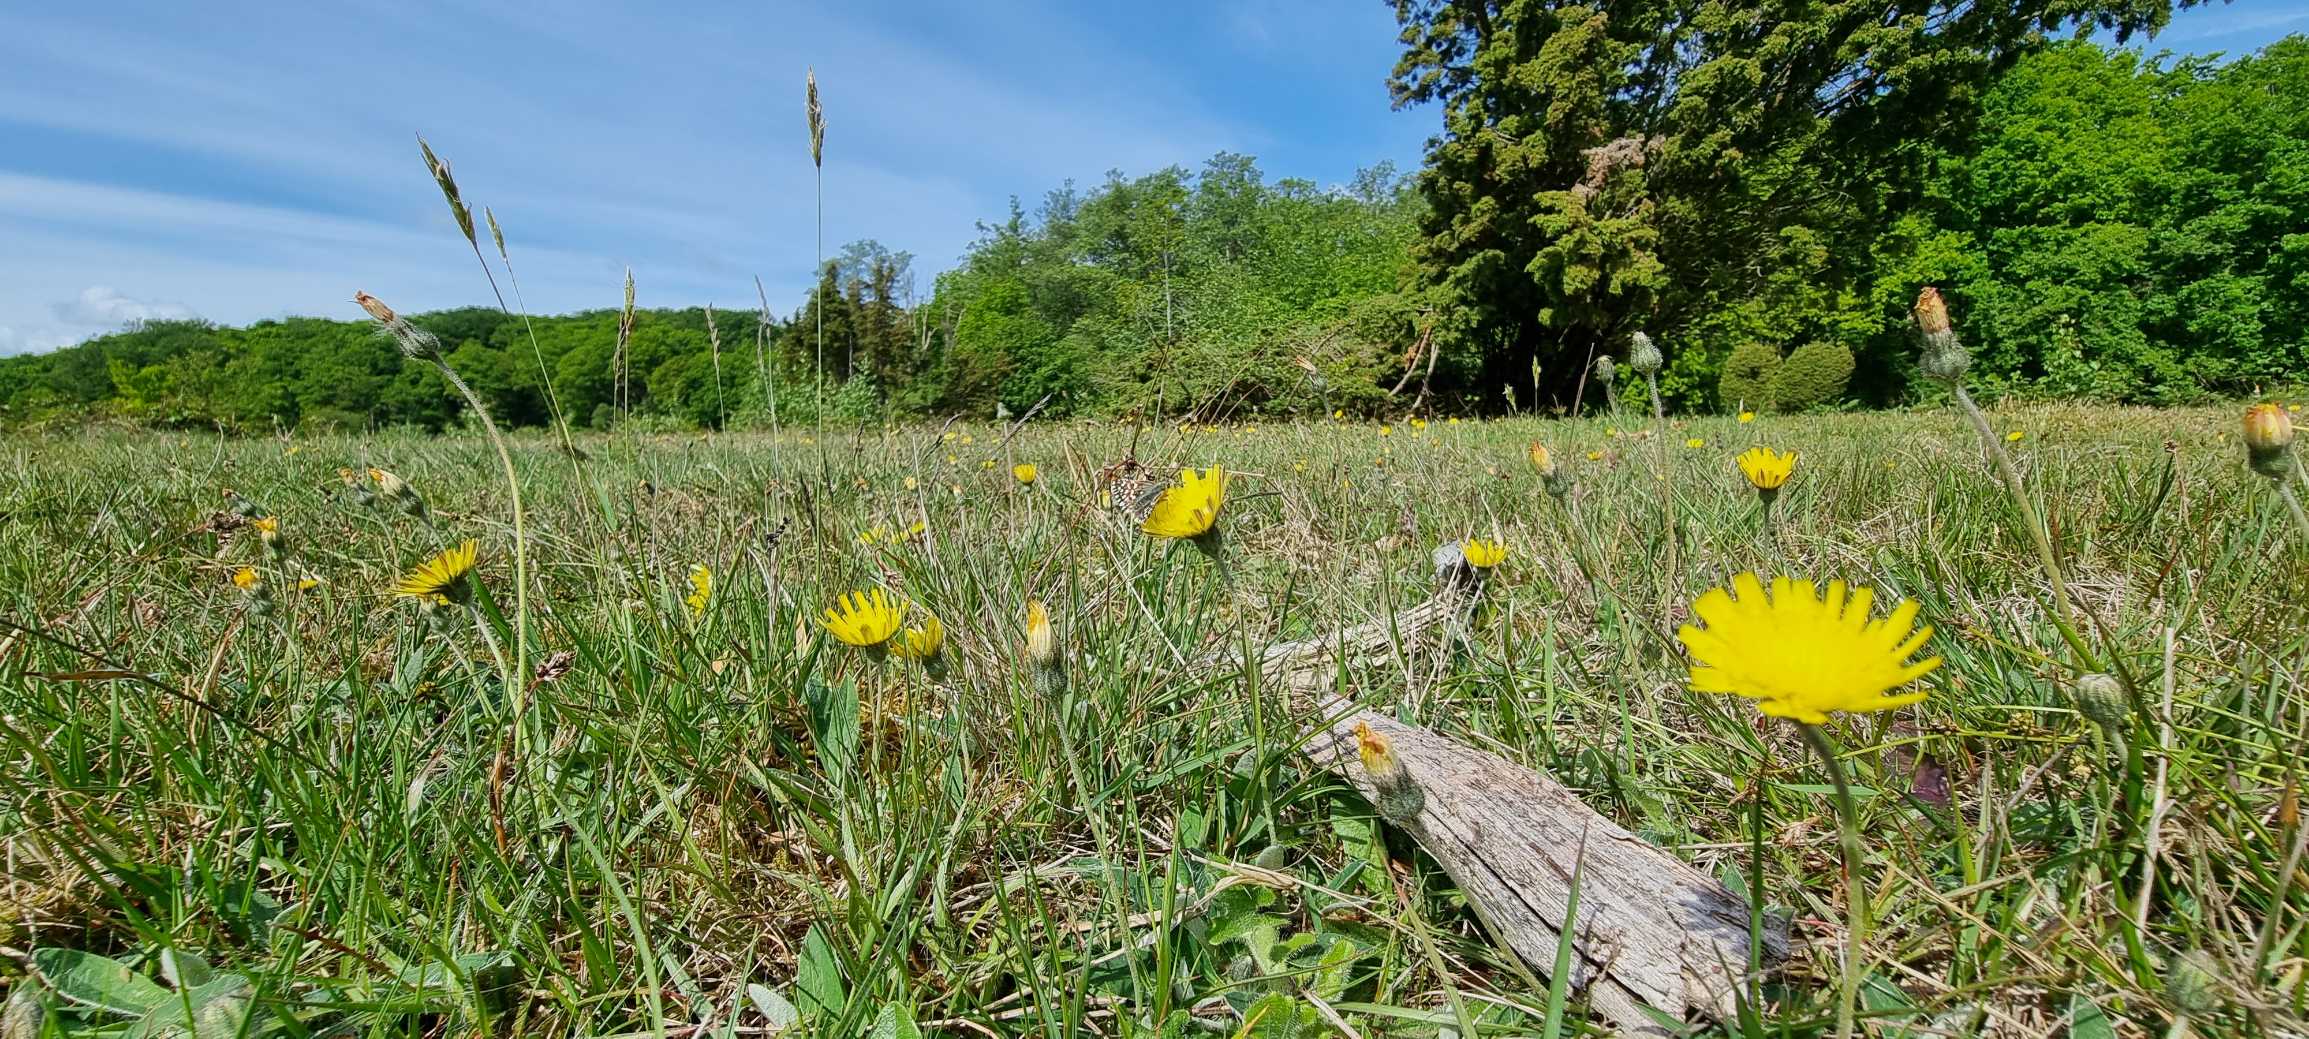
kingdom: Animalia
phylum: Arthropoda
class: Insecta
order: Lepidoptera
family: Hesperiidae
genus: Pyrgus
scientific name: Pyrgus malvae
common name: Spættet bredpande
